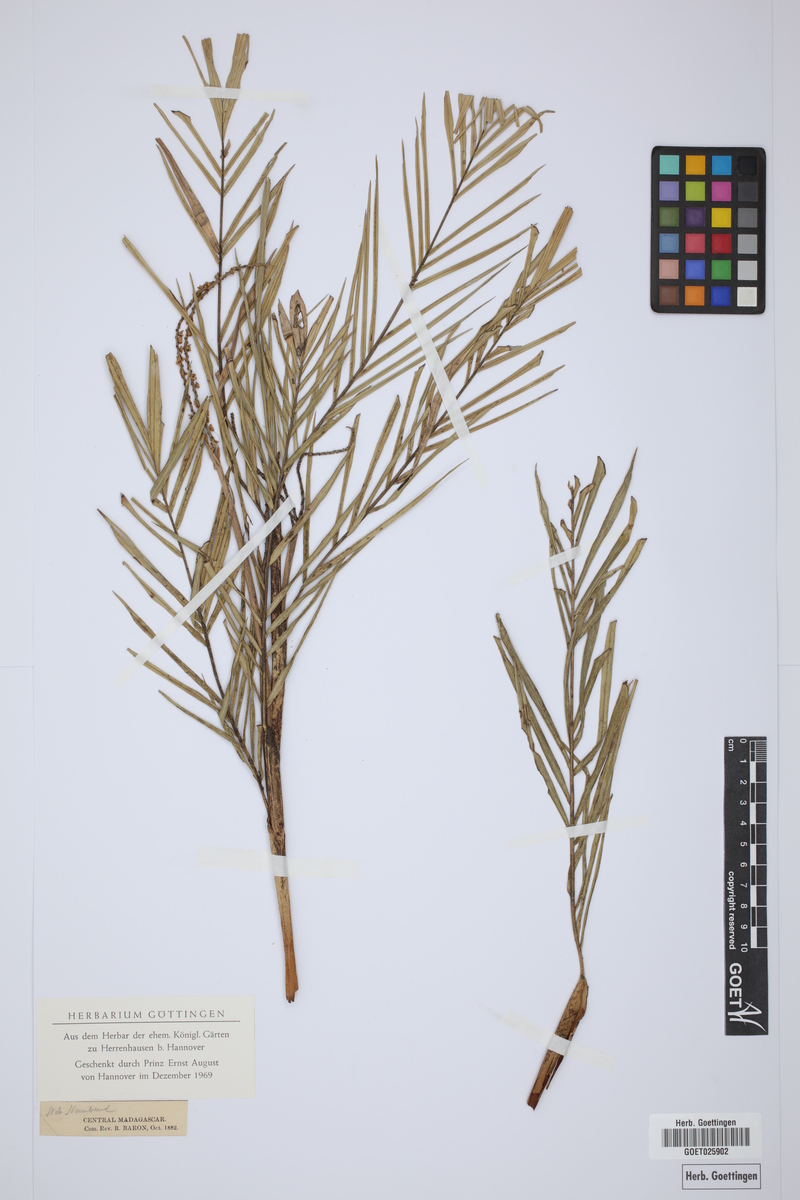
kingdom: Plantae
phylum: Tracheophyta
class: Liliopsida
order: Arecales
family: Arecaceae
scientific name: Arecaceae
